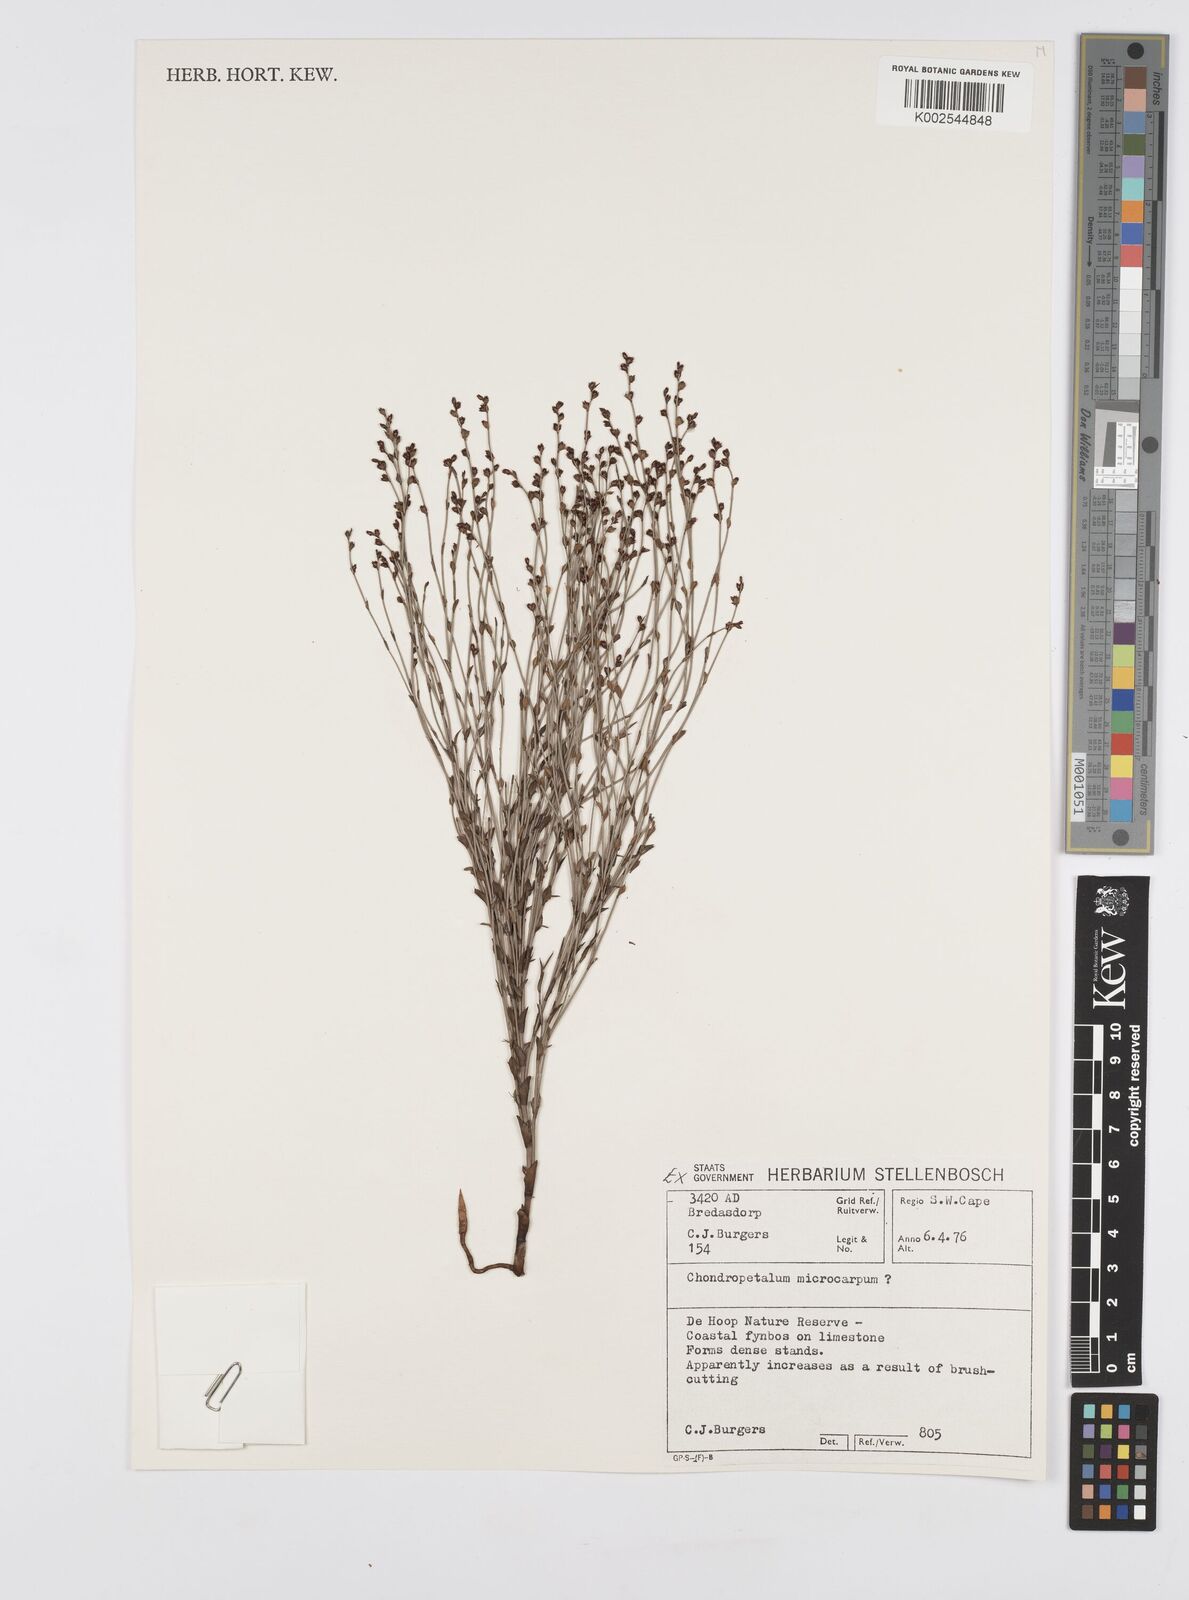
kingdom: Plantae
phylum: Tracheophyta
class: Liliopsida
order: Poales
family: Restionaceae
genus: Elegia
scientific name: Elegia microcarpa
